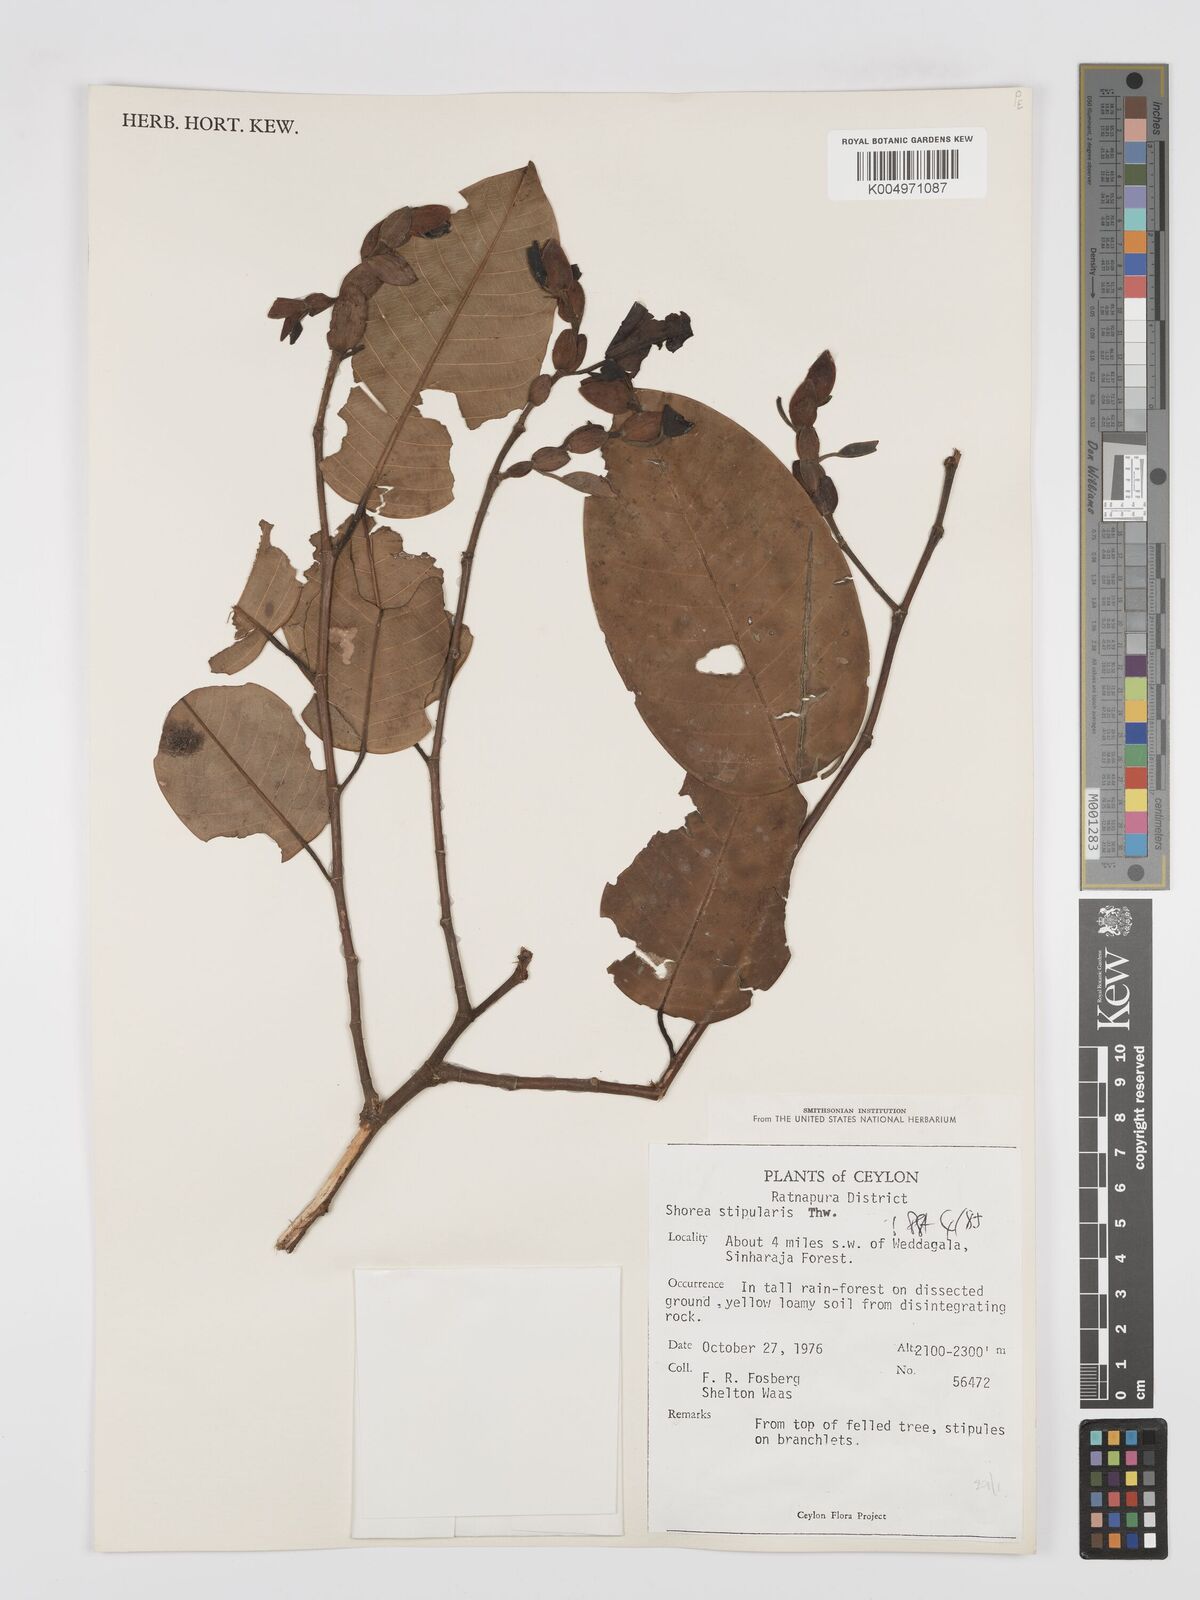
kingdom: Plantae
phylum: Tracheophyta
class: Magnoliopsida
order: Malvales
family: Dipterocarpaceae
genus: Anthoshorea
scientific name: Anthoshorea stipularis
